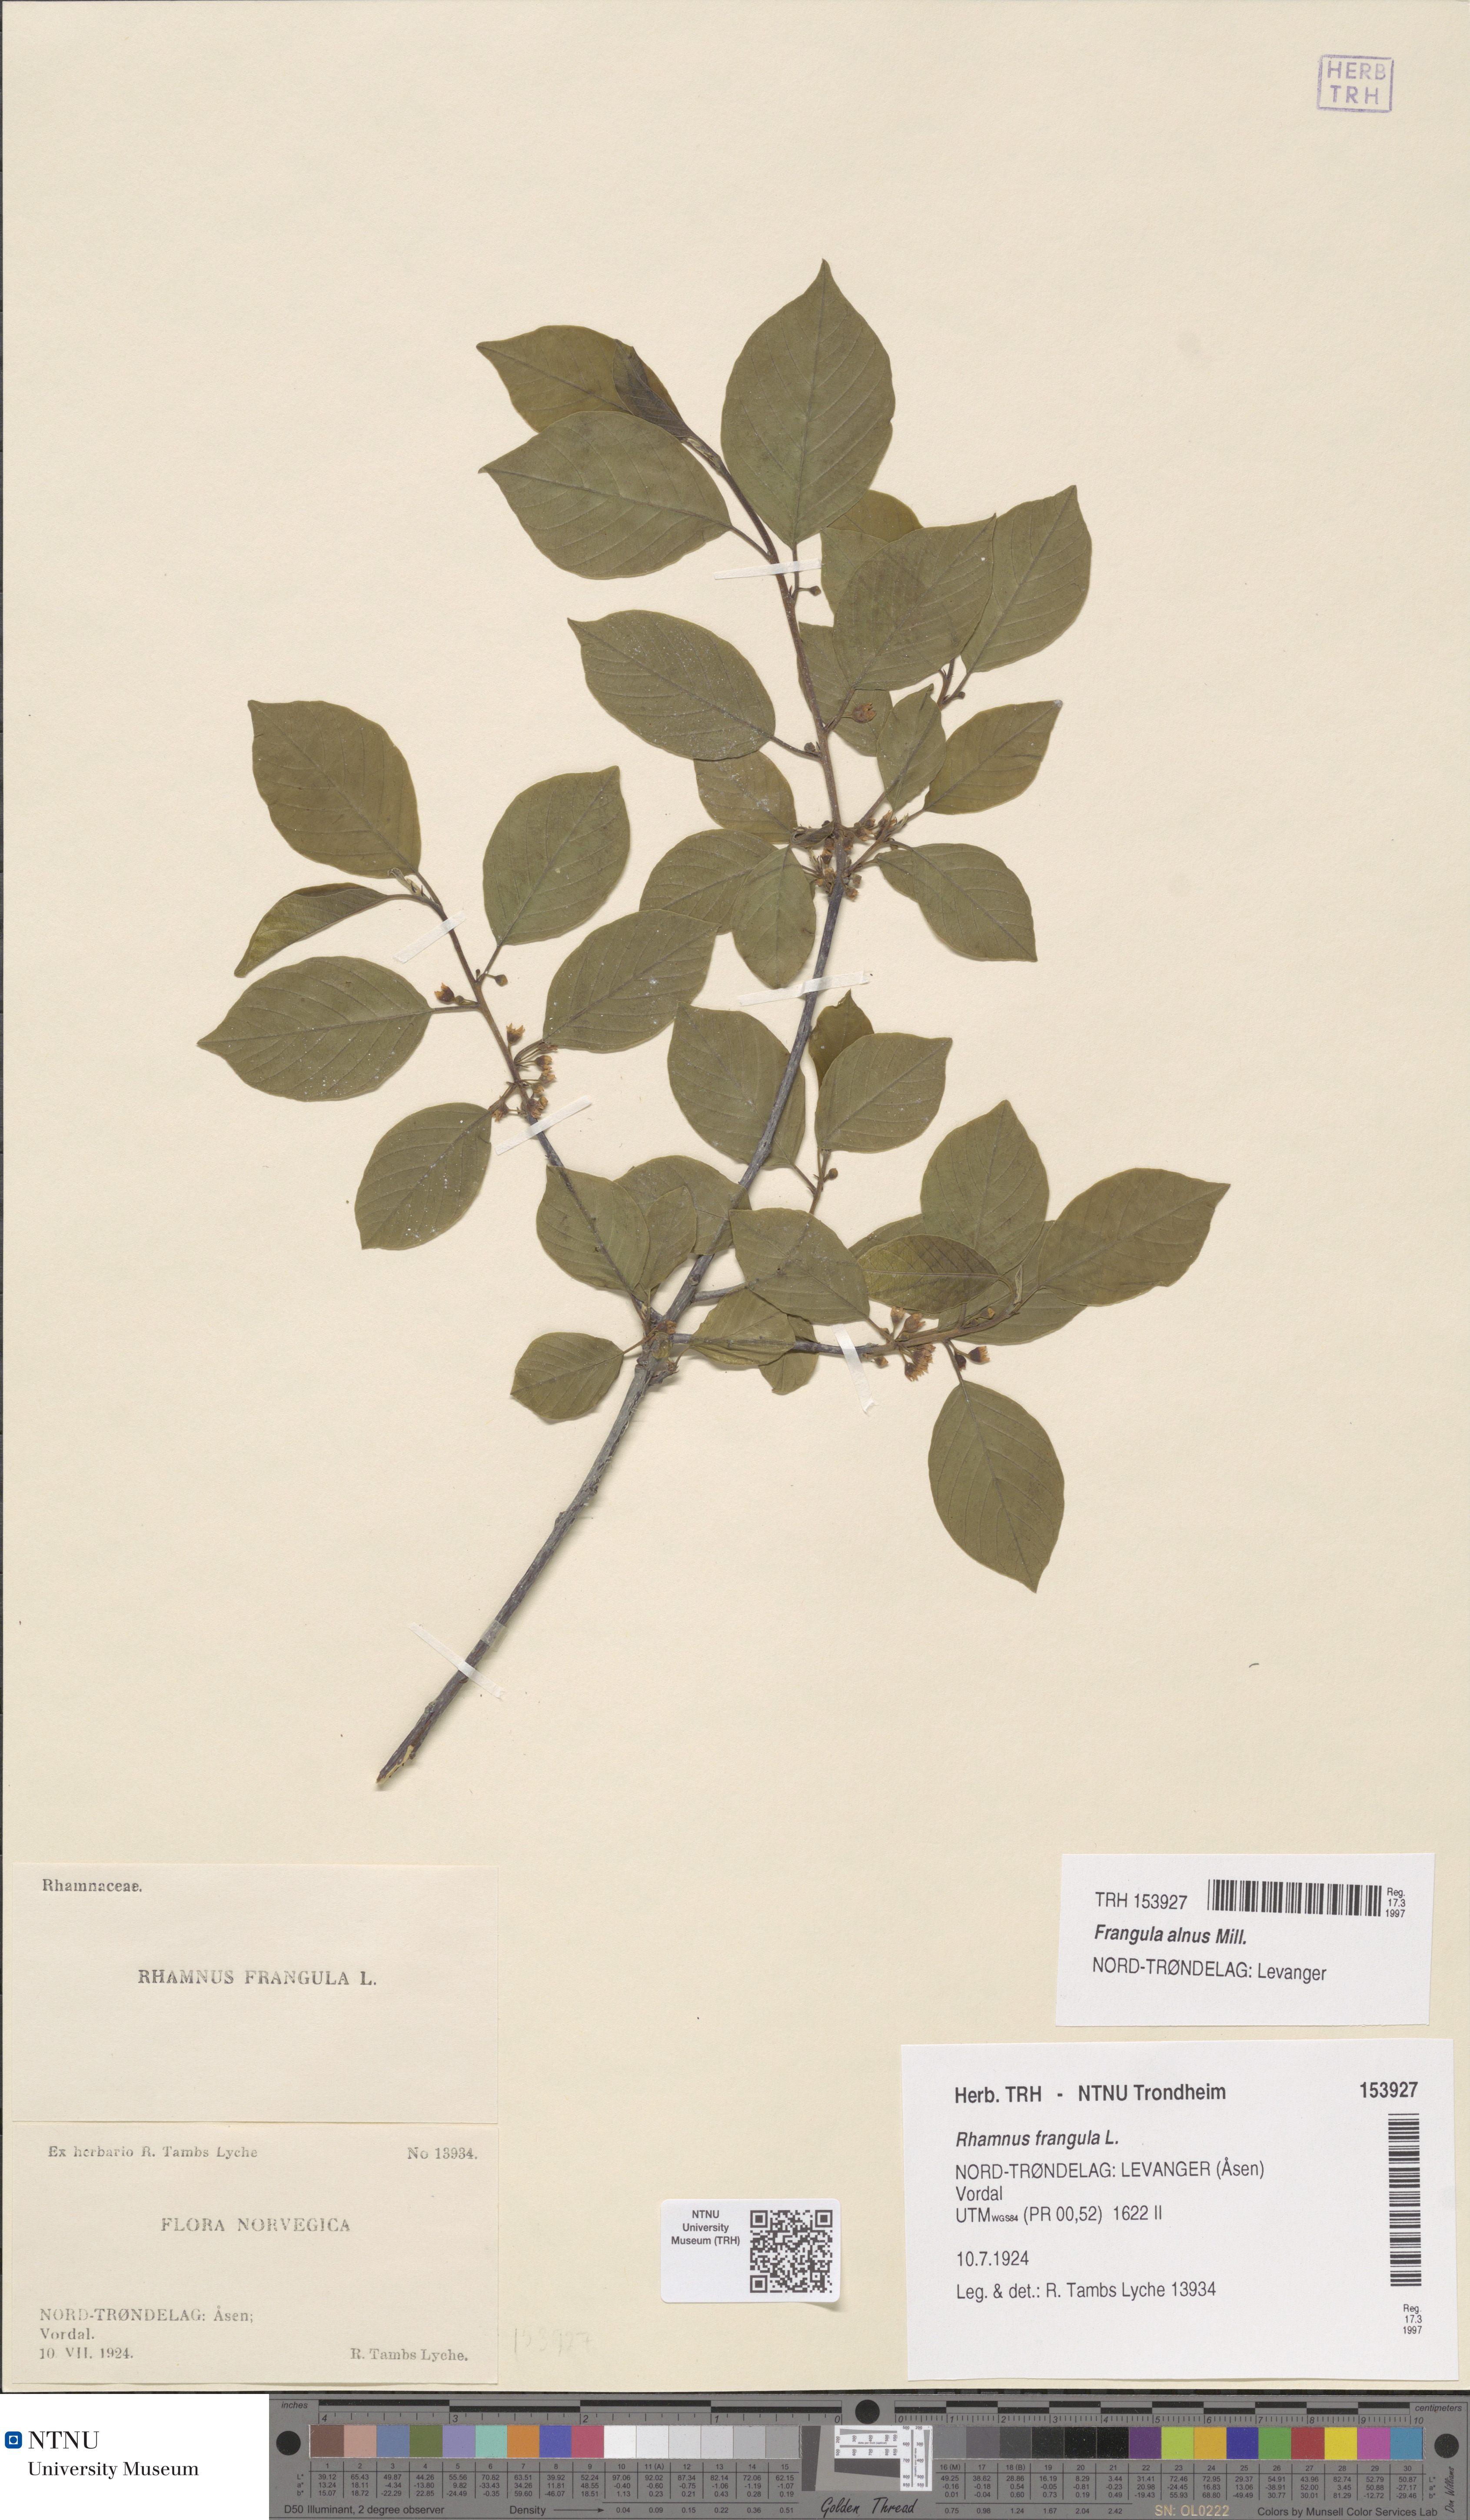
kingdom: Plantae
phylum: Tracheophyta
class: Magnoliopsida
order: Rosales
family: Rhamnaceae
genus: Frangula
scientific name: Frangula alnus
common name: Alder buckthorn
